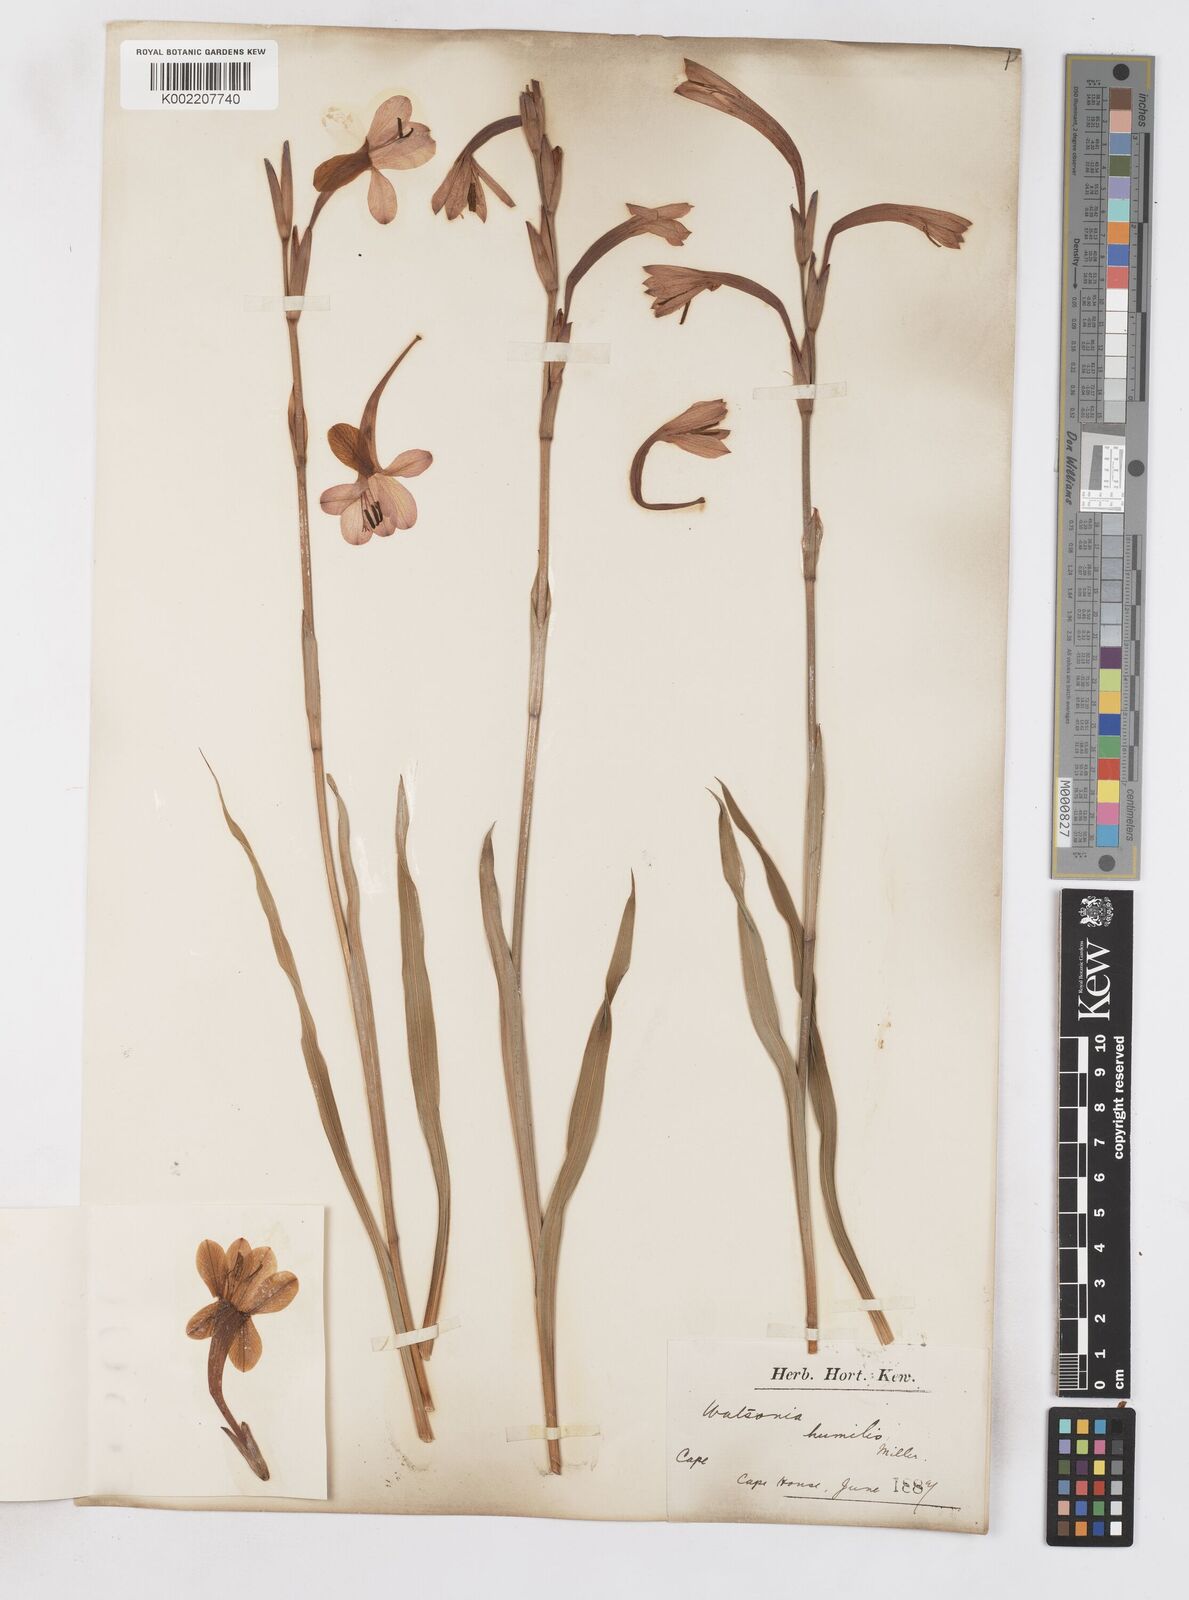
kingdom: Plantae
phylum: Tracheophyta
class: Liliopsida
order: Asparagales
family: Iridaceae
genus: Watsonia
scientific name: Watsonia humilis
